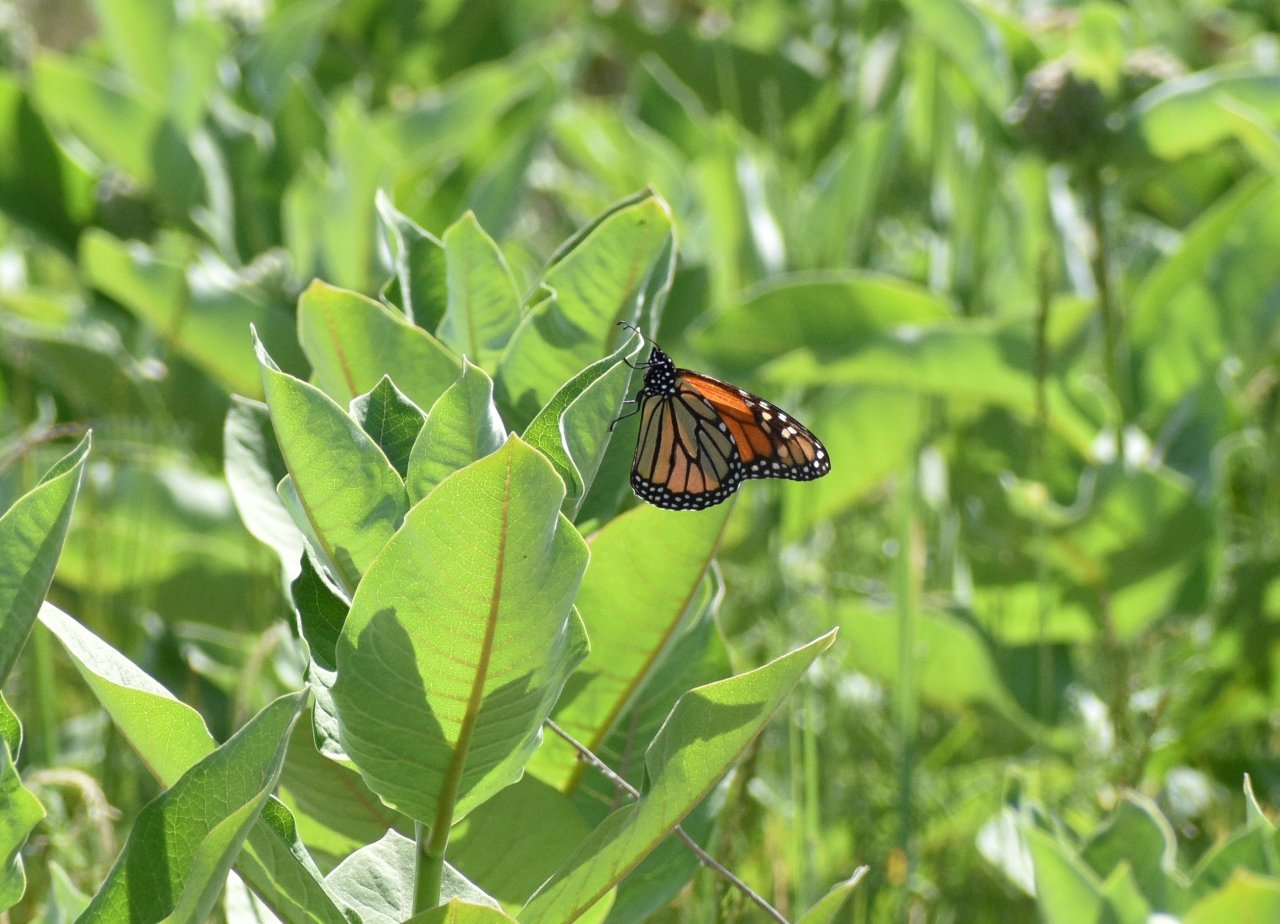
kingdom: Animalia
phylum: Arthropoda
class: Insecta
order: Lepidoptera
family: Nymphalidae
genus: Danaus
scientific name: Danaus plexippus
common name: Monarch
